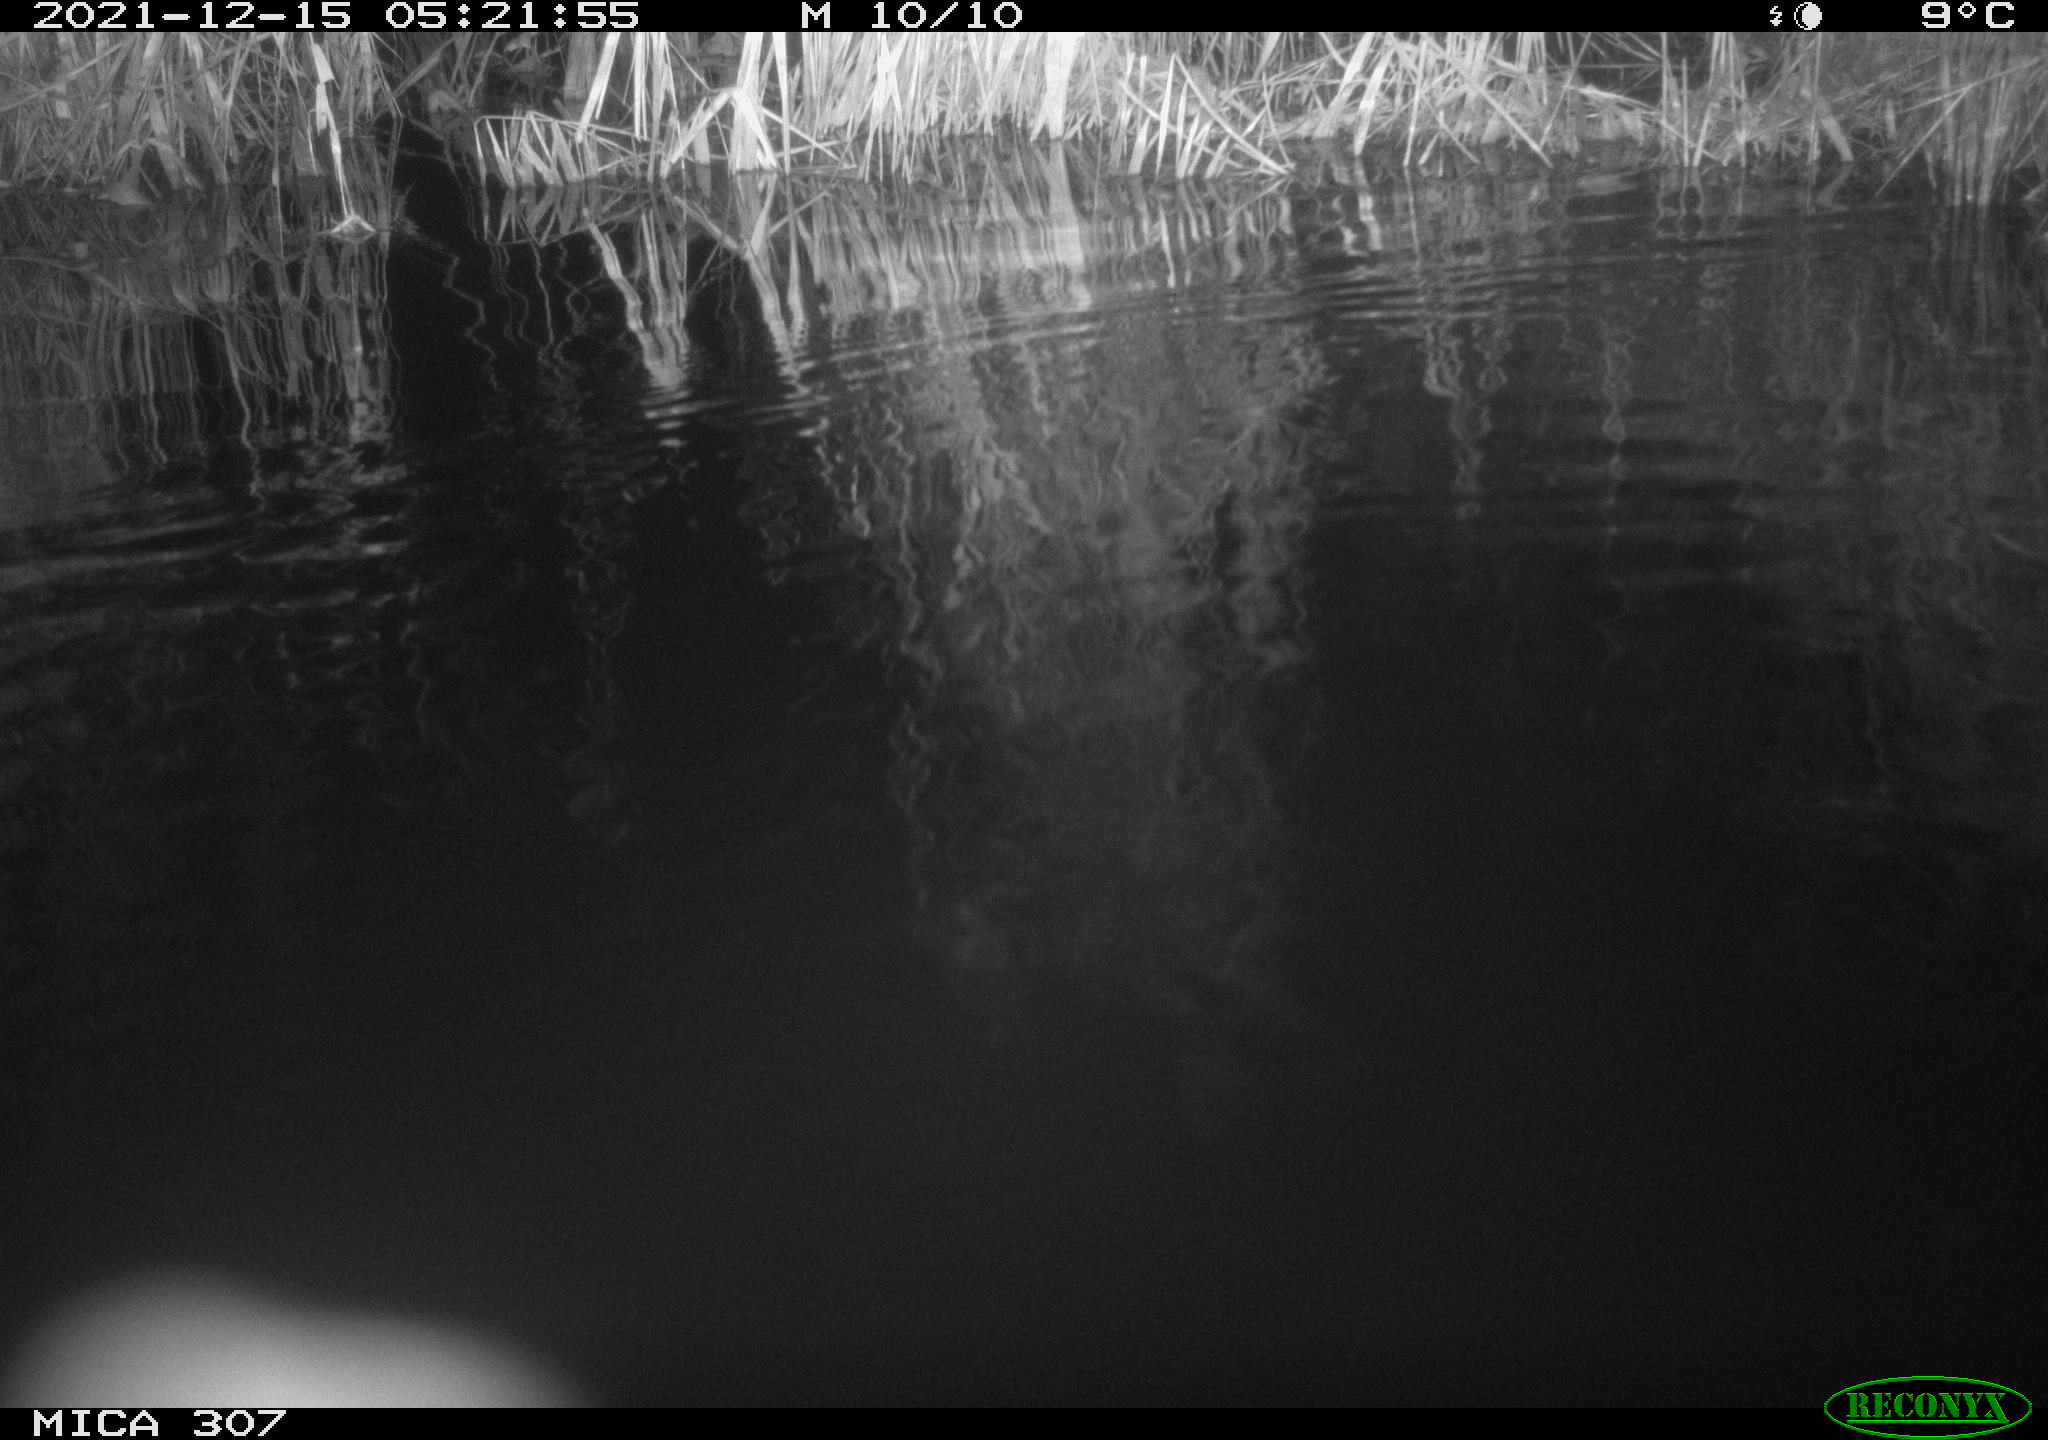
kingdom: Animalia
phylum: Chordata
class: Mammalia
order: Rodentia
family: Muridae
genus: Rattus
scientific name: Rattus norvegicus
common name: Brown rat
